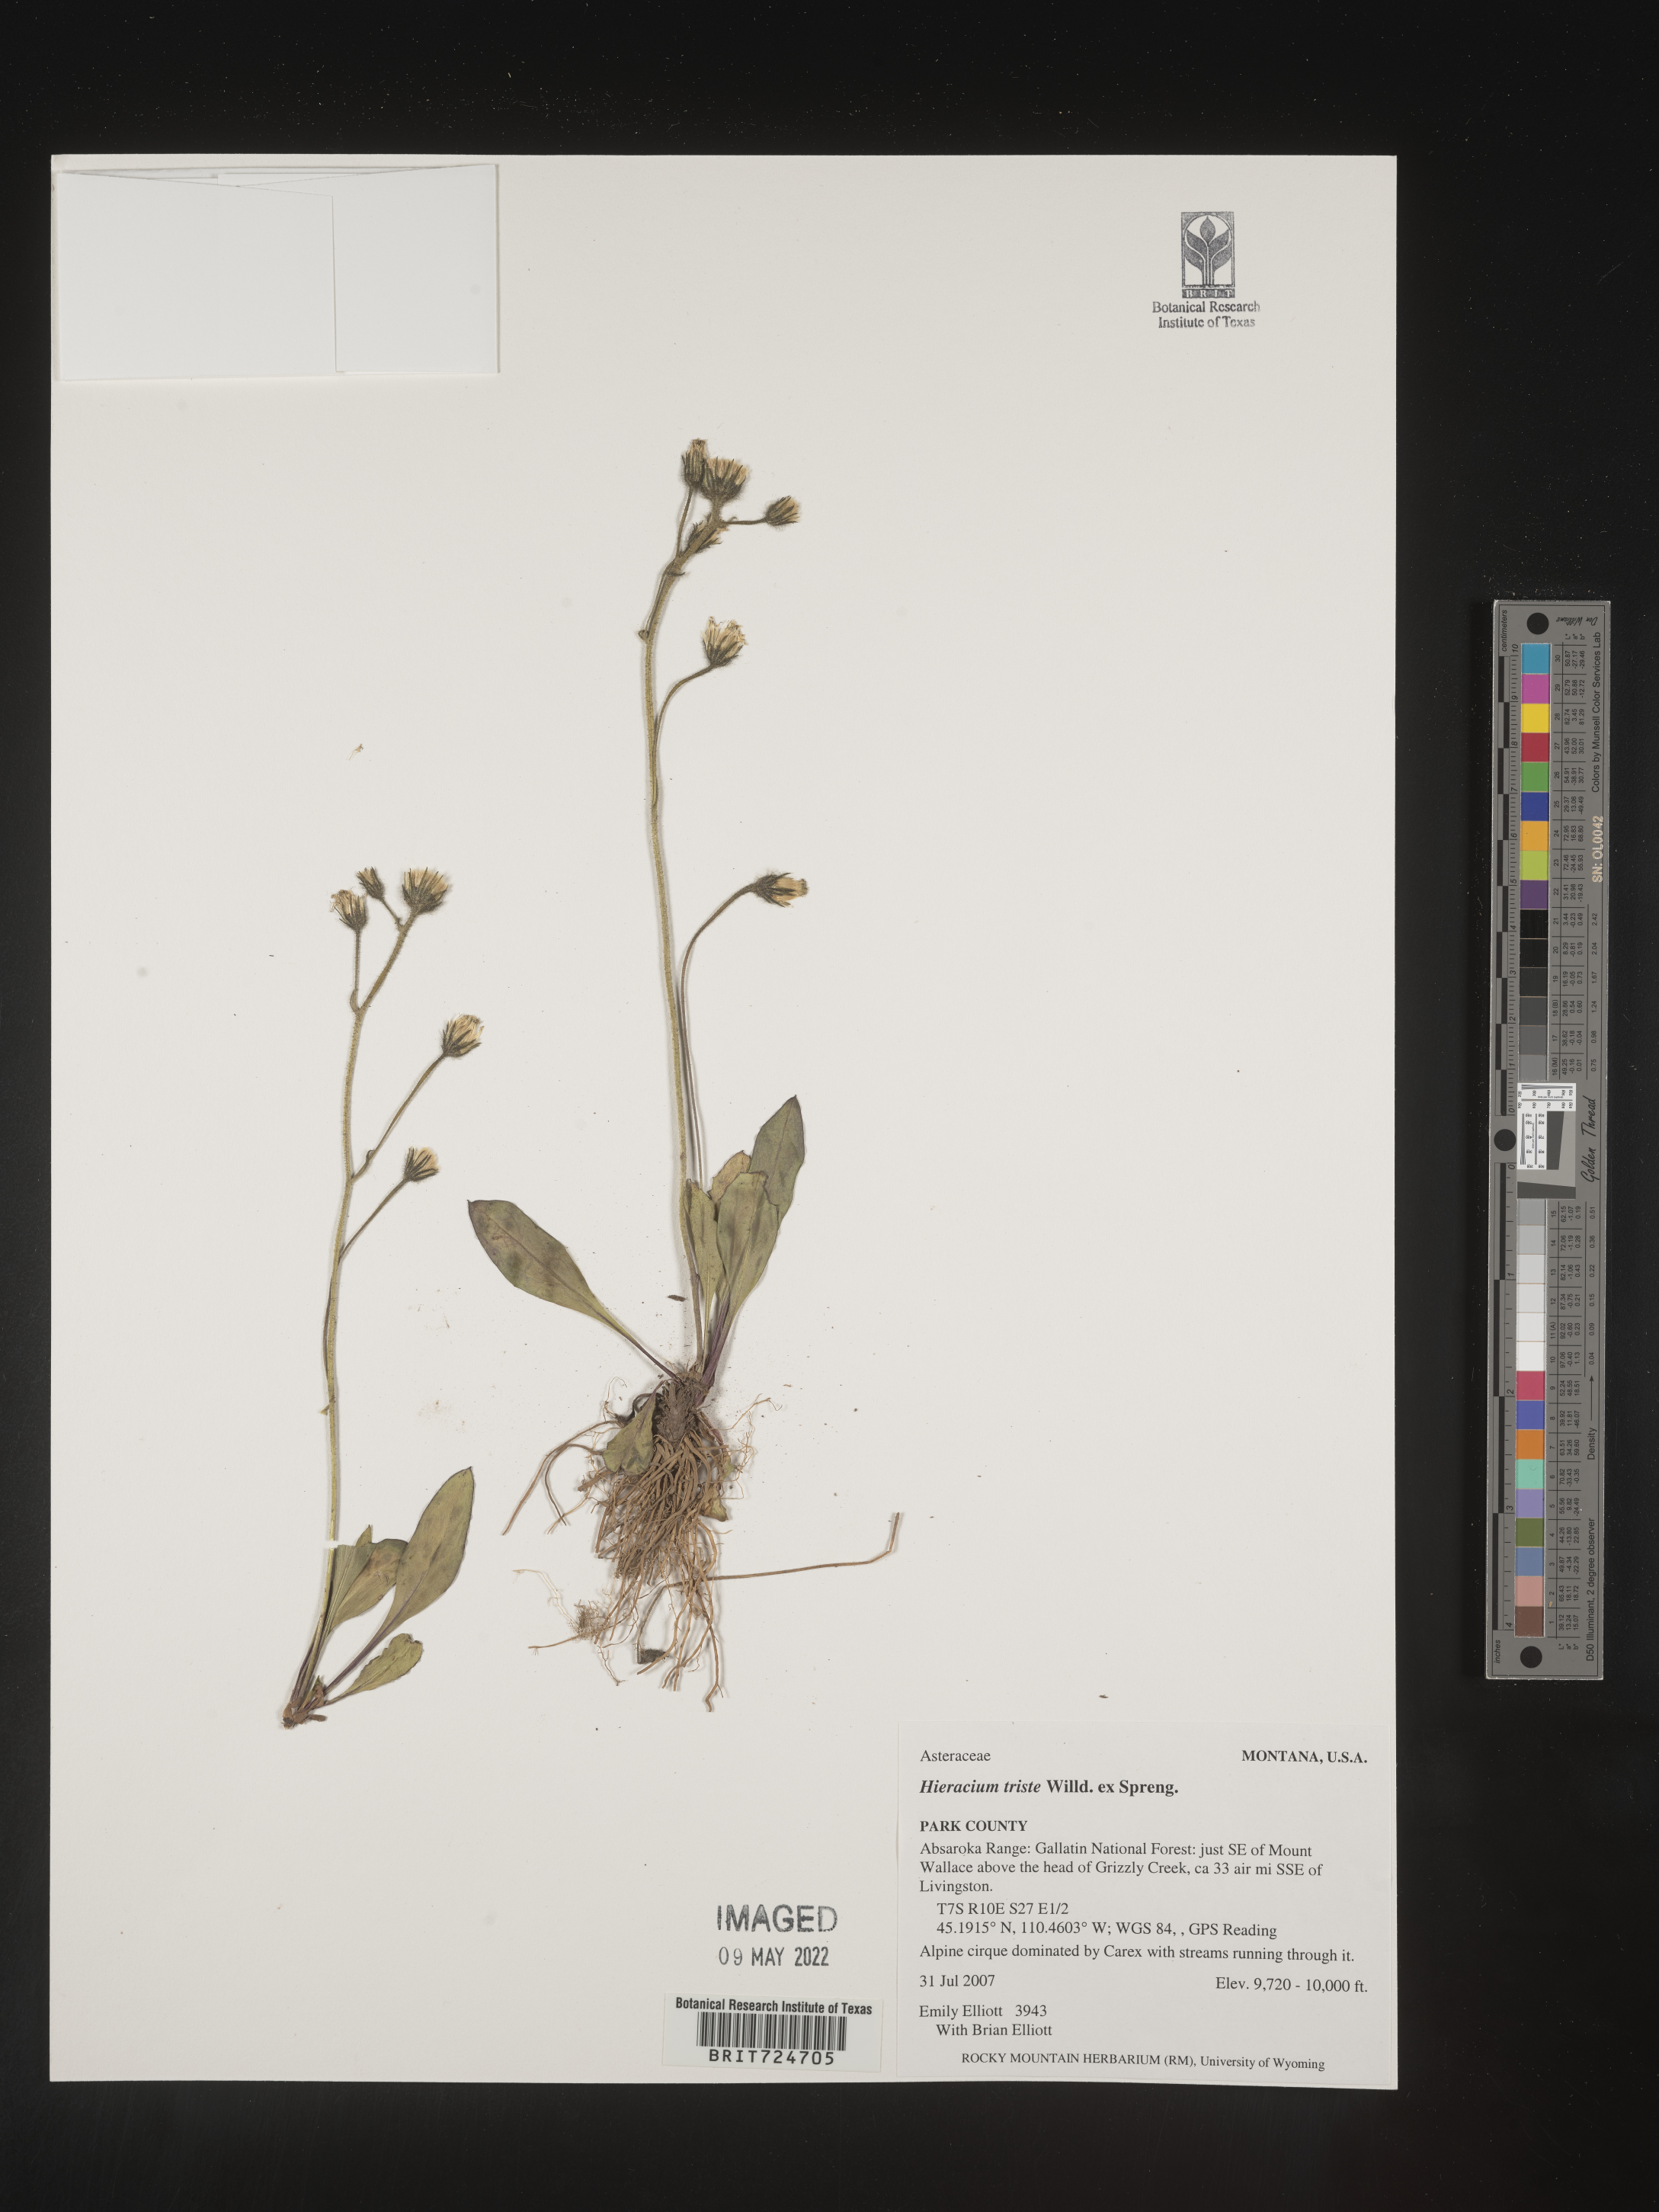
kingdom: Plantae
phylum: Tracheophyta
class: Magnoliopsida
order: Asterales
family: Asteraceae
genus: Hieracium
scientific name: Hieracium
